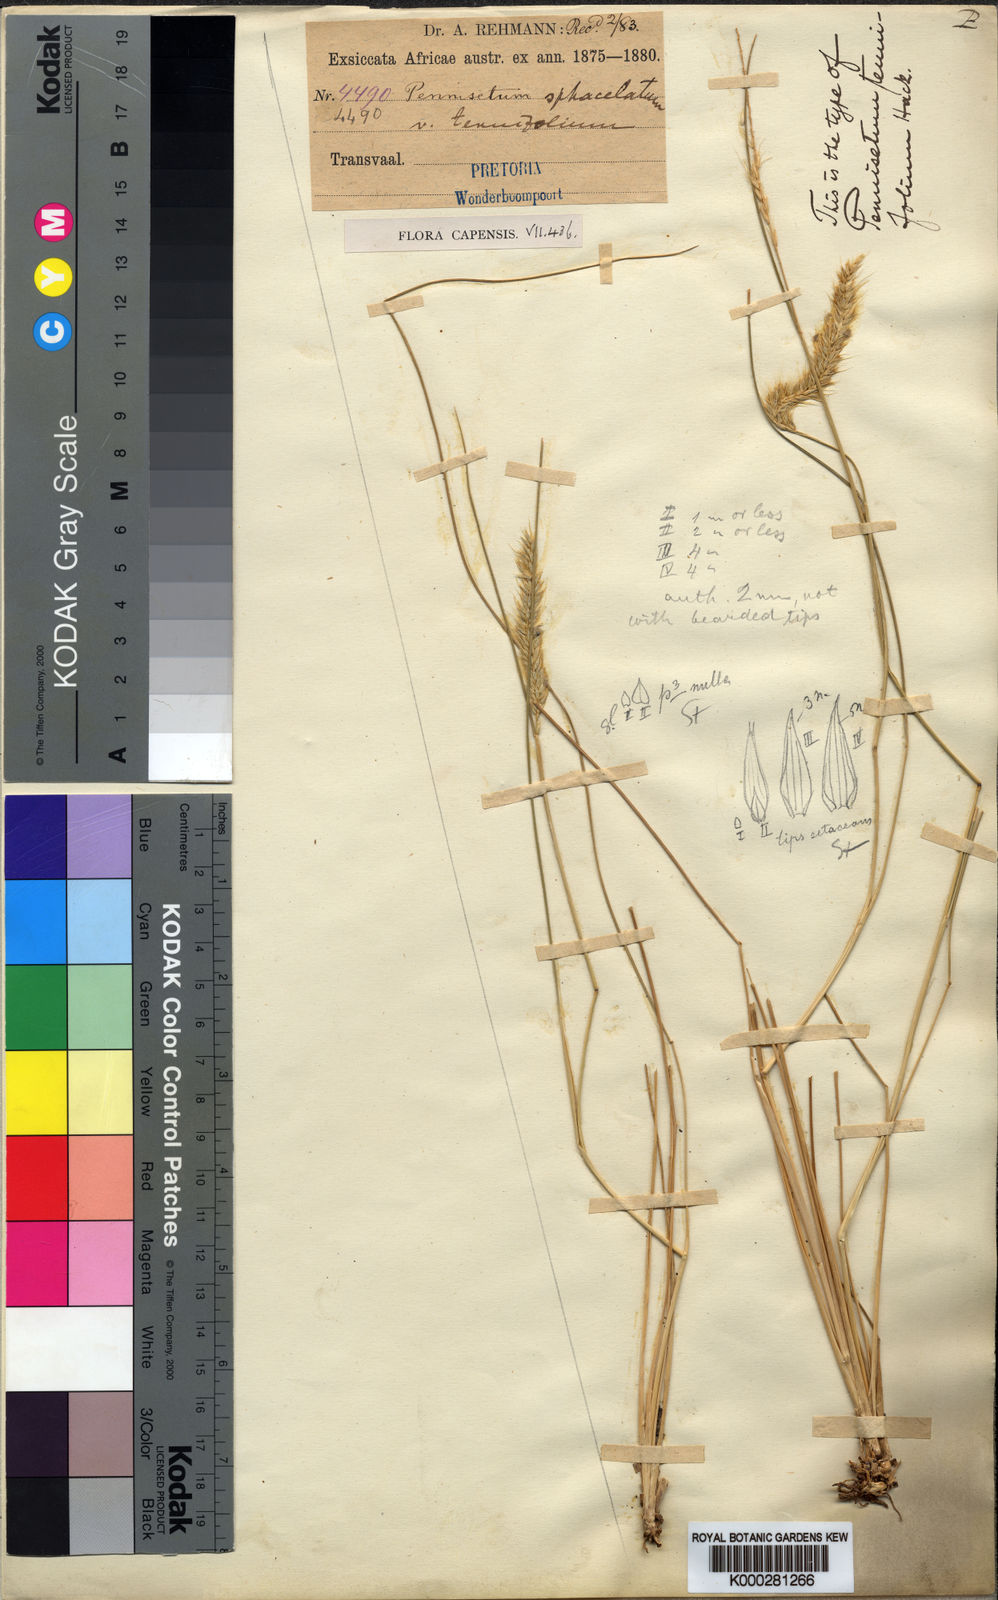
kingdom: Plantae
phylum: Tracheophyta
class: Liliopsida
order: Poales
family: Poaceae
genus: Cenchrus
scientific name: Cenchrus sphacelatus
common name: Bulgras
